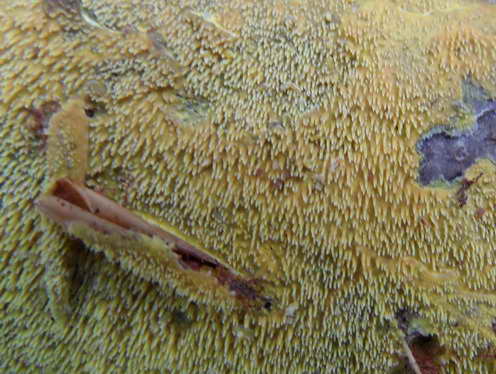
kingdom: Fungi
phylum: Basidiomycota
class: Agaricomycetes
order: Polyporales
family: Meruliaceae
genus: Mycoacia
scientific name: Mycoacia uda
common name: citrongul vokspig
